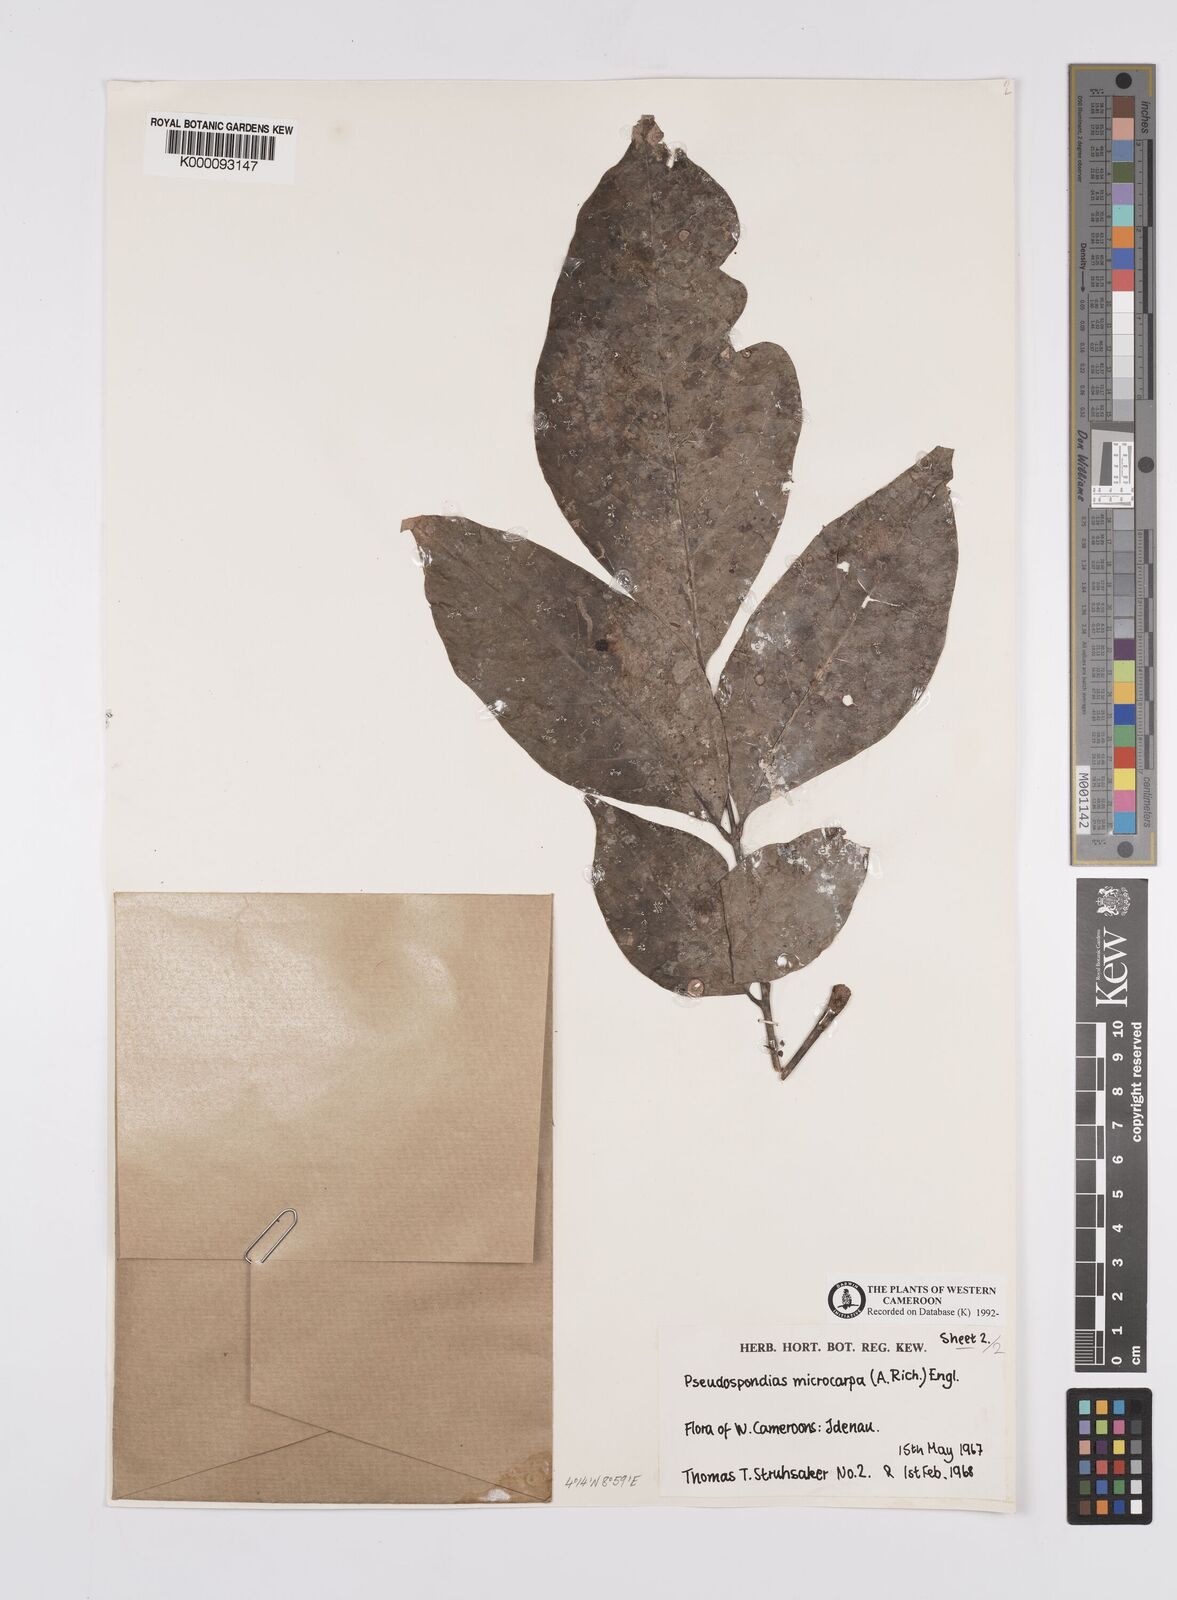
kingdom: Plantae
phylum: Tracheophyta
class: Magnoliopsida
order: Sapindales
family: Anacardiaceae
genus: Pseudospondias
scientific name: Pseudospondias microcarpa
